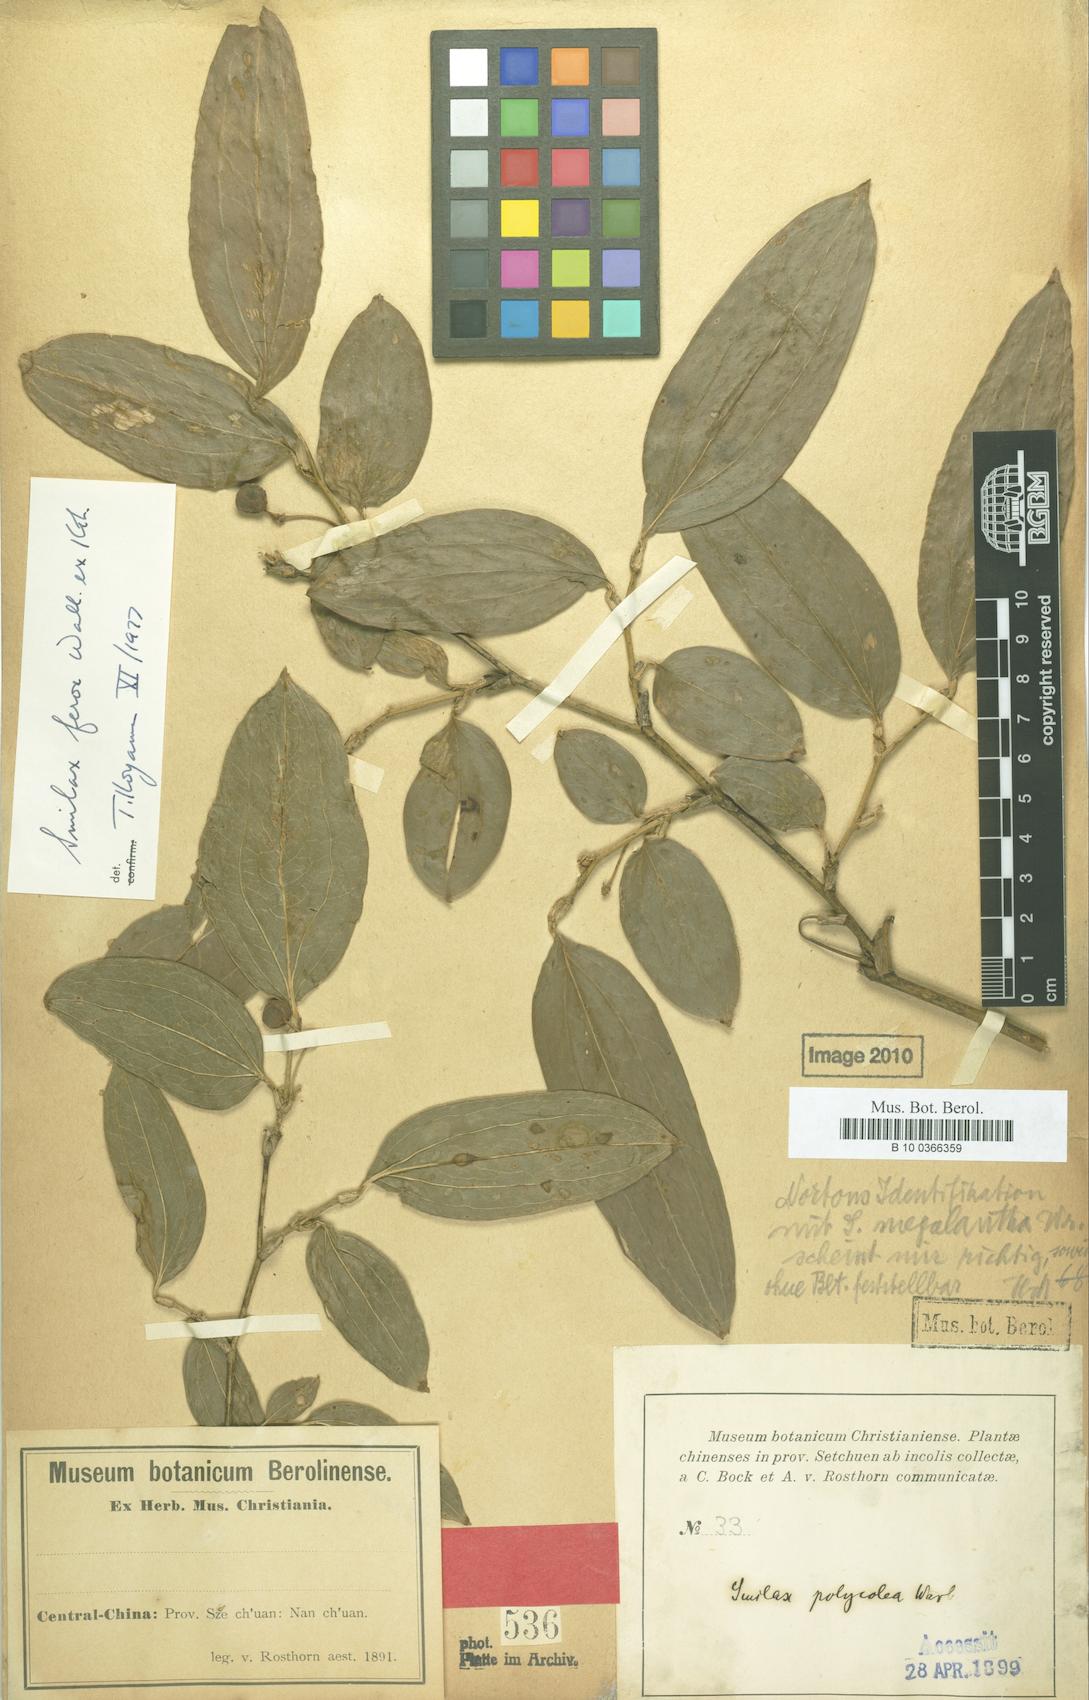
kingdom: Plantae
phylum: Tracheophyta
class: Liliopsida
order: Liliales
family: Smilacaceae
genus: Smilax
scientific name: Smilax ferox
